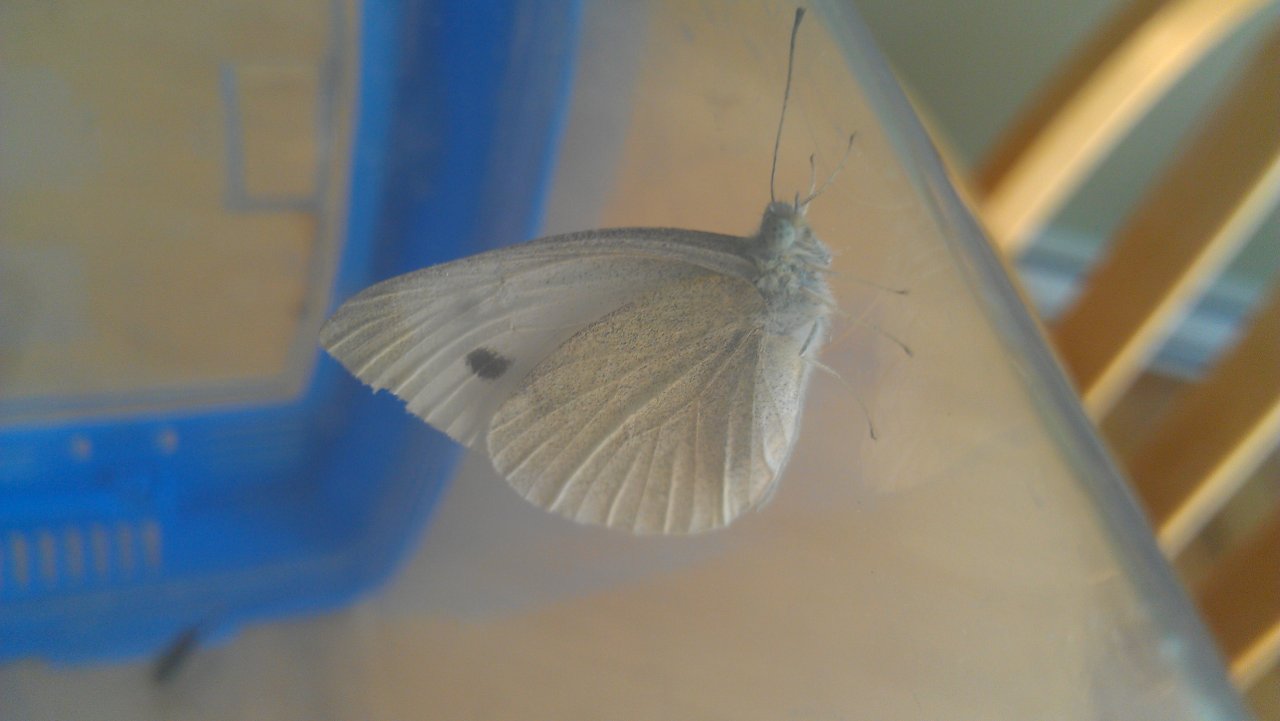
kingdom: Animalia
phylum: Arthropoda
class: Insecta
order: Lepidoptera
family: Pieridae
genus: Pieris
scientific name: Pieris rapae
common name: Cabbage White
